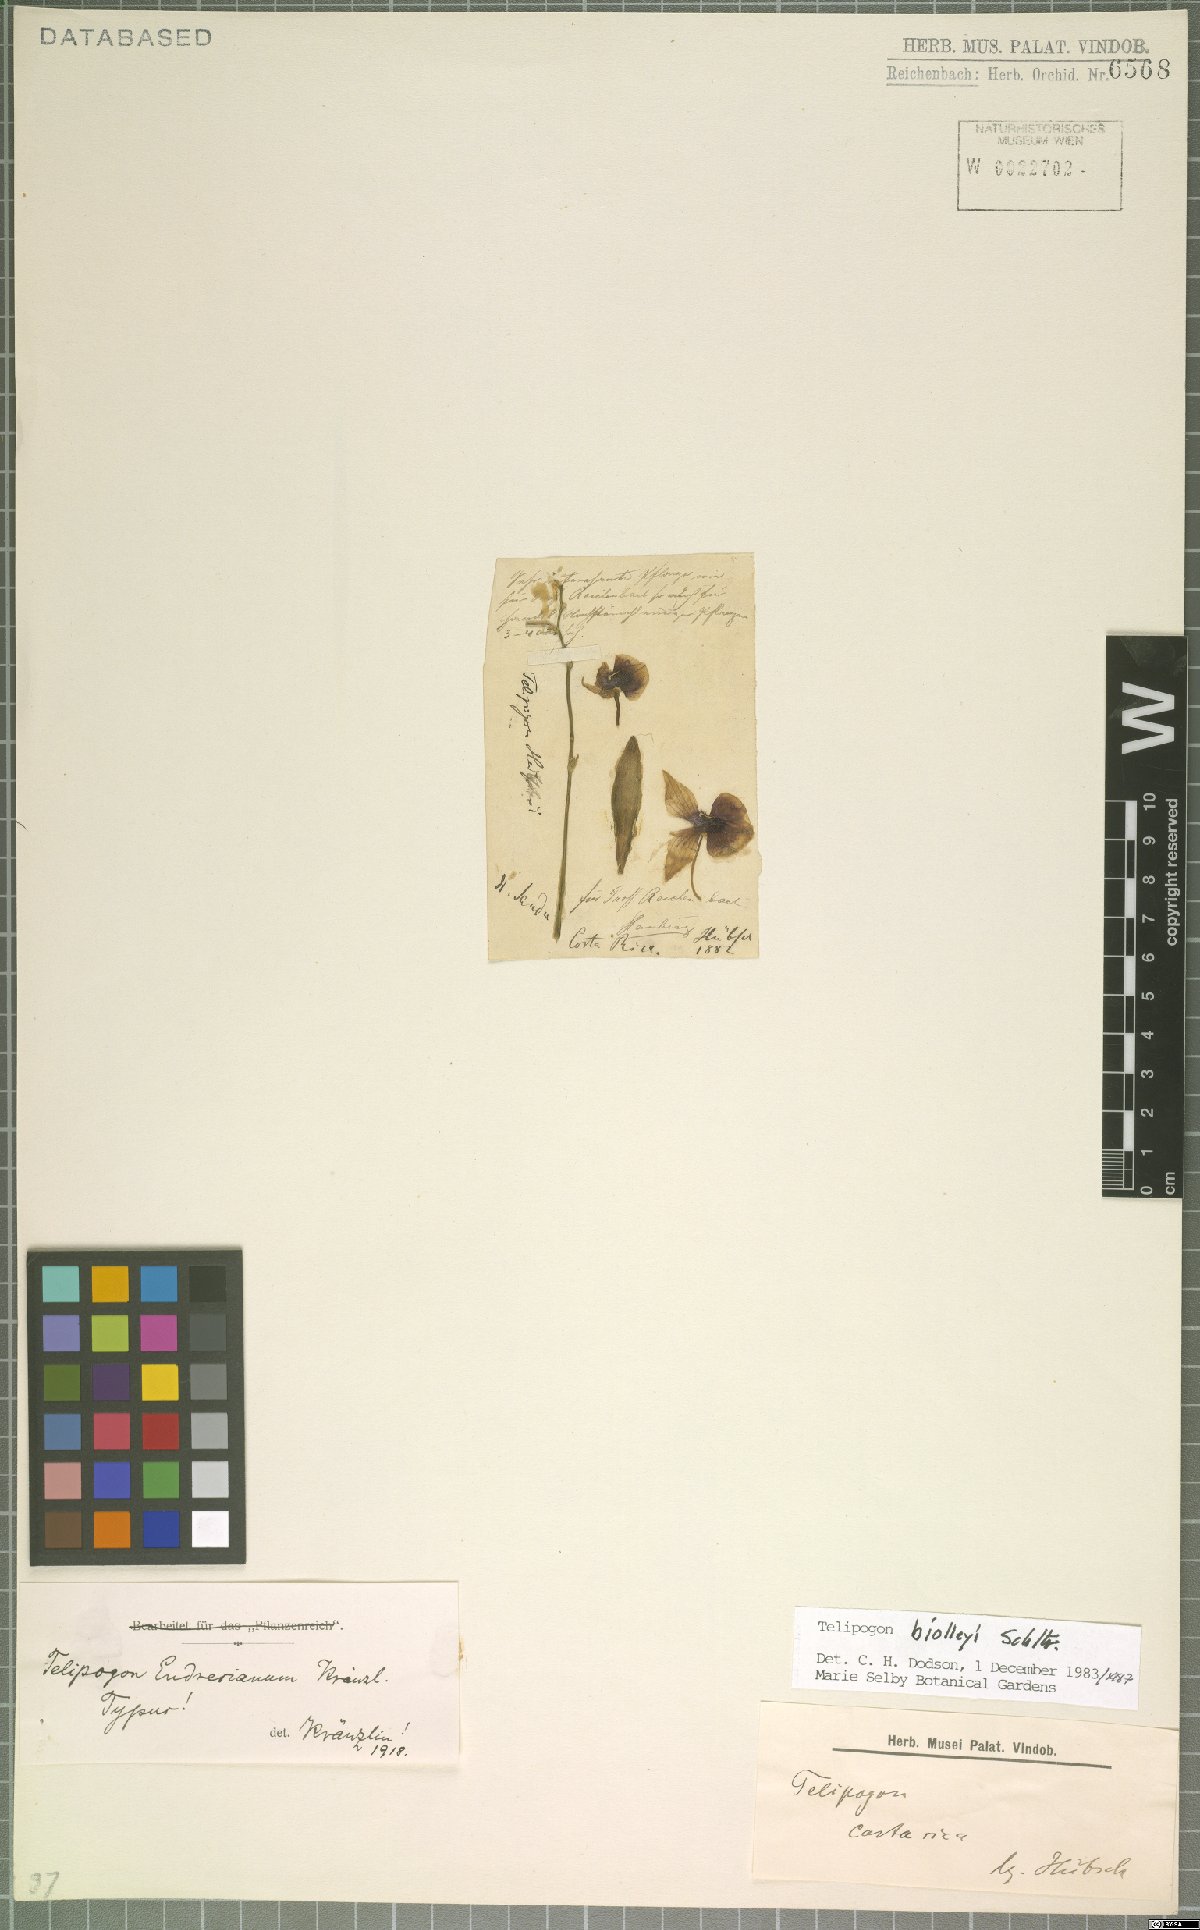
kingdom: Plantae
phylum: Tracheophyta
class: Liliopsida
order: Asparagales
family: Orchidaceae
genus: Telipogon
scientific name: Telipogon biolleyi
